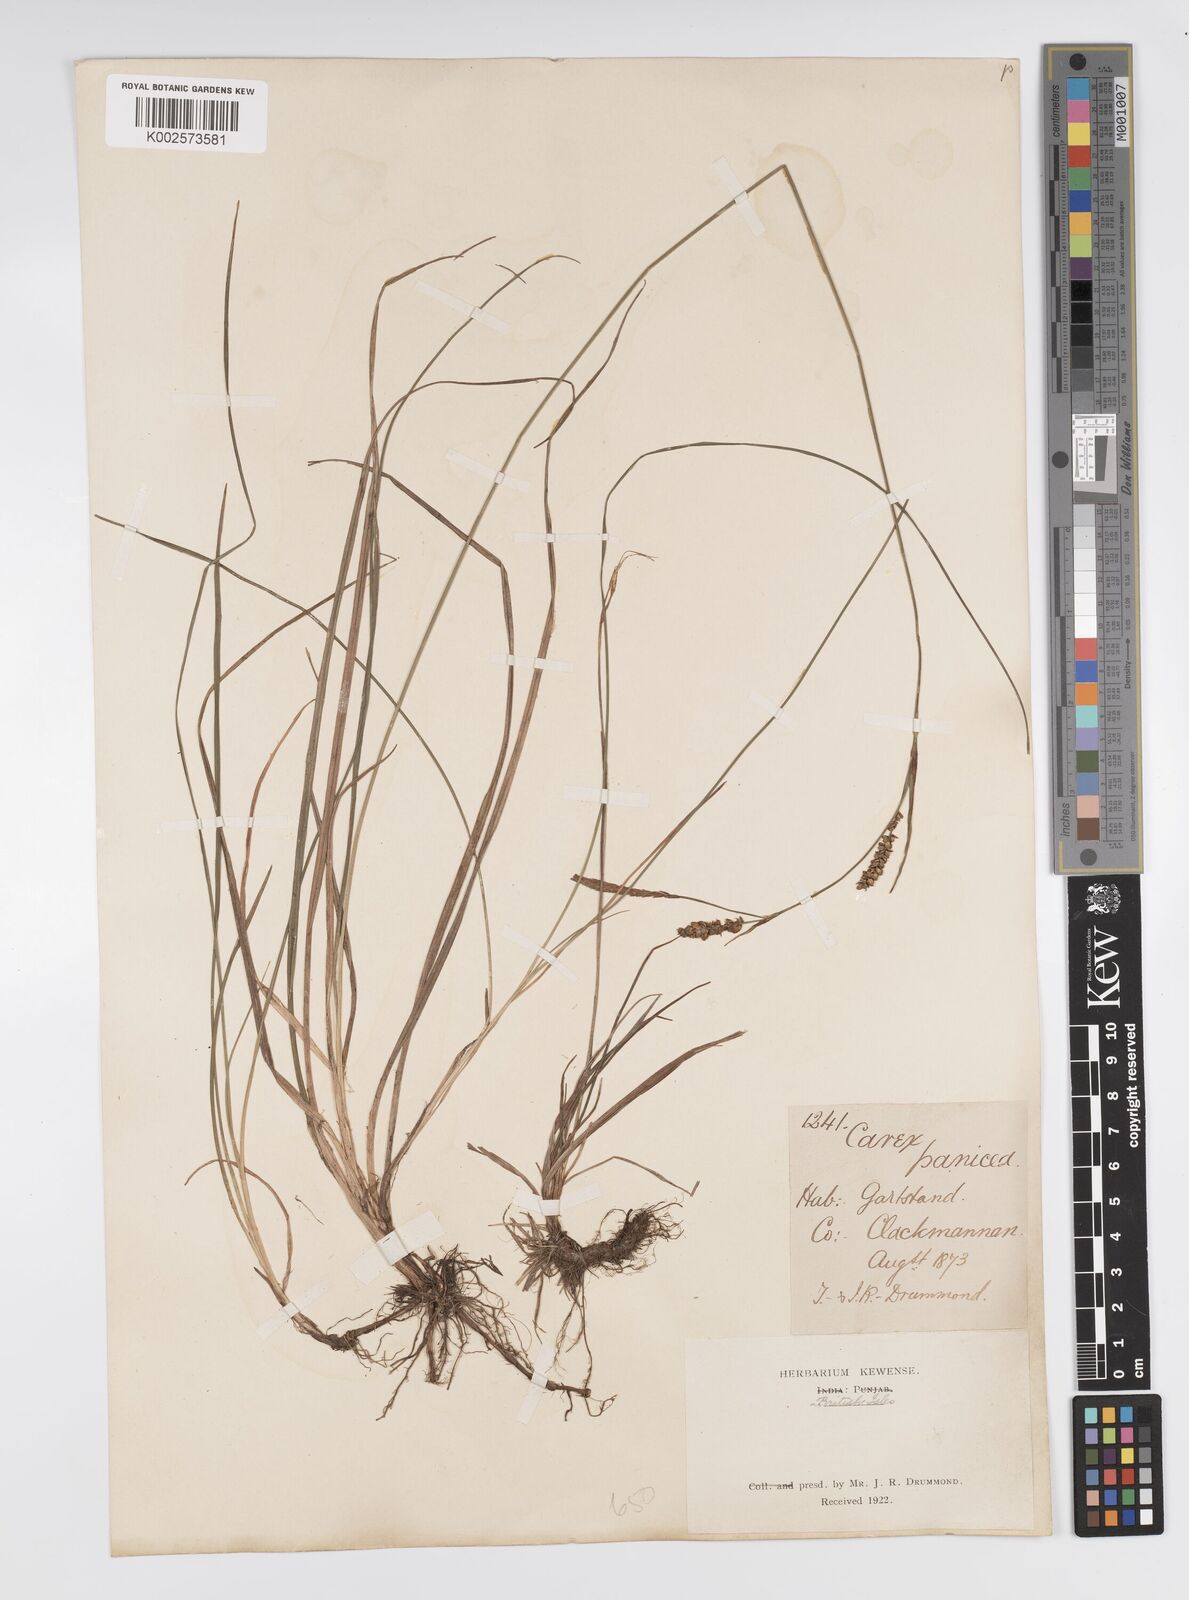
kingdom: Plantae
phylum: Tracheophyta
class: Liliopsida
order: Poales
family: Cyperaceae
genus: Carex
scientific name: Carex panicea
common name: Carnation sedge
